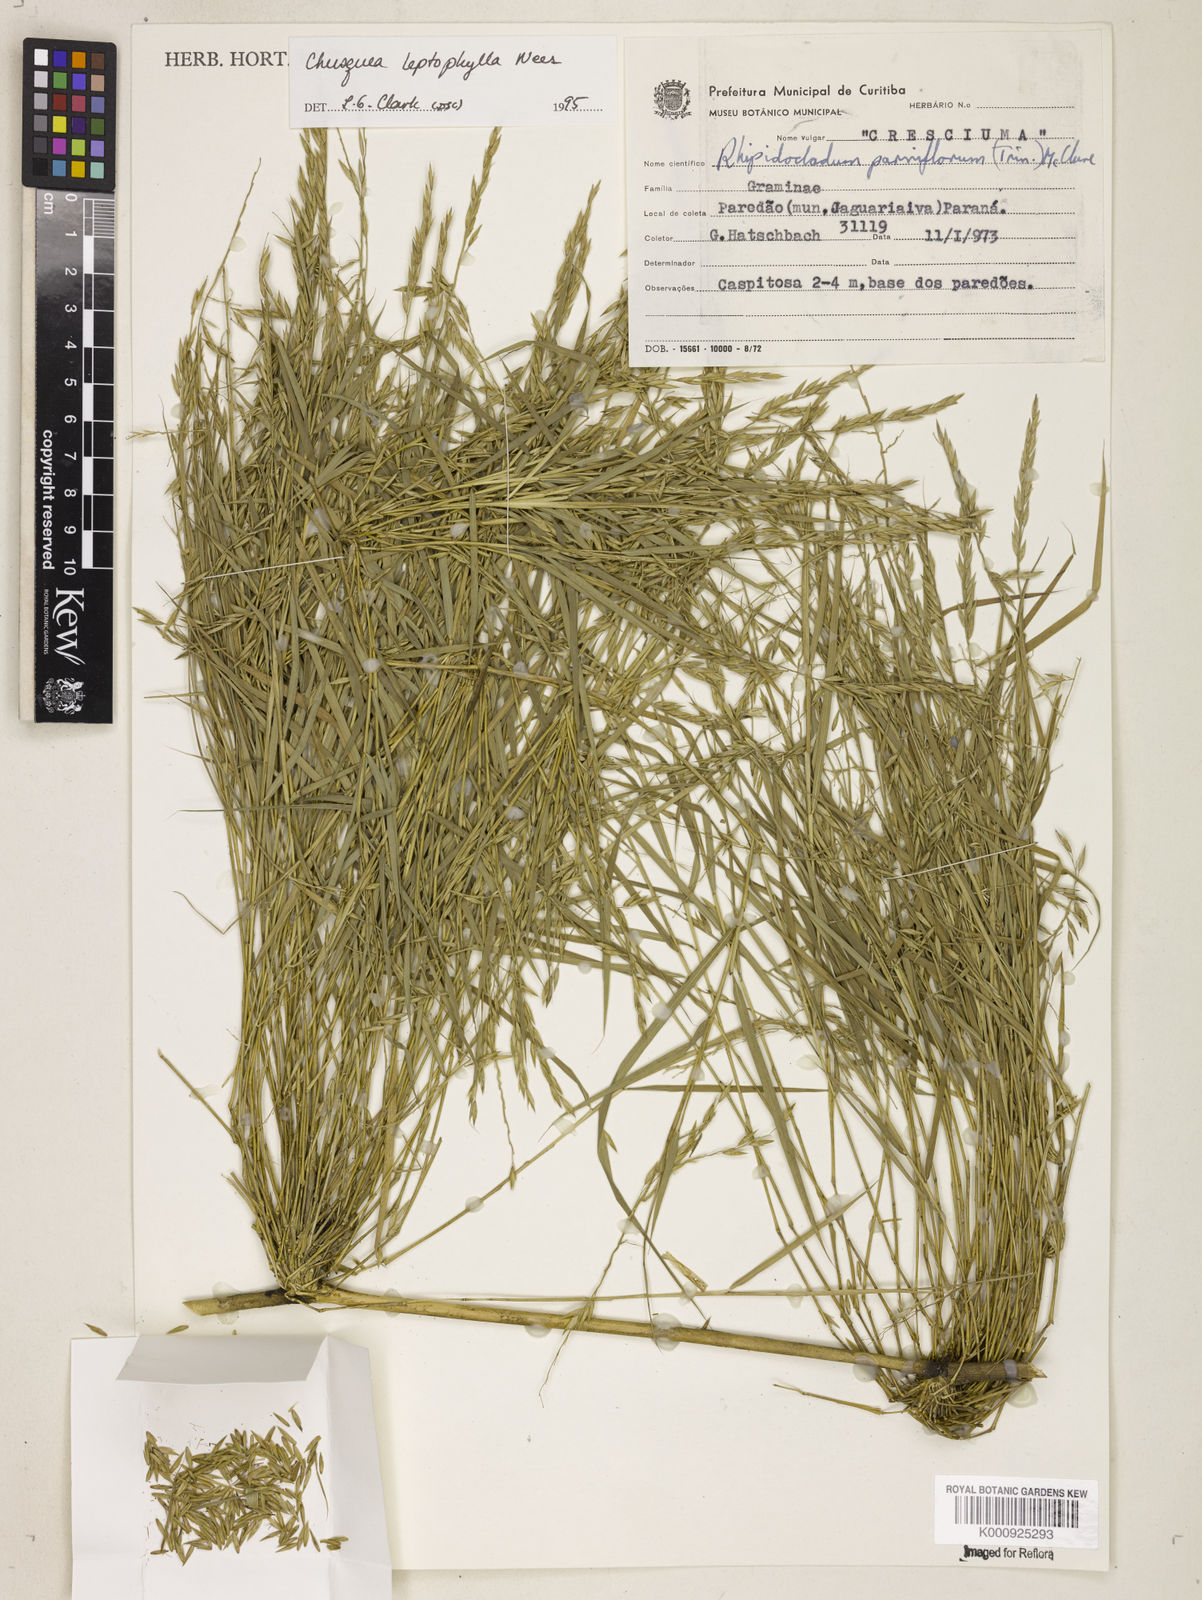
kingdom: Plantae
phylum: Tracheophyta
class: Liliopsida
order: Poales
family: Poaceae
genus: Chusquea
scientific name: Chusquea leptophylla
